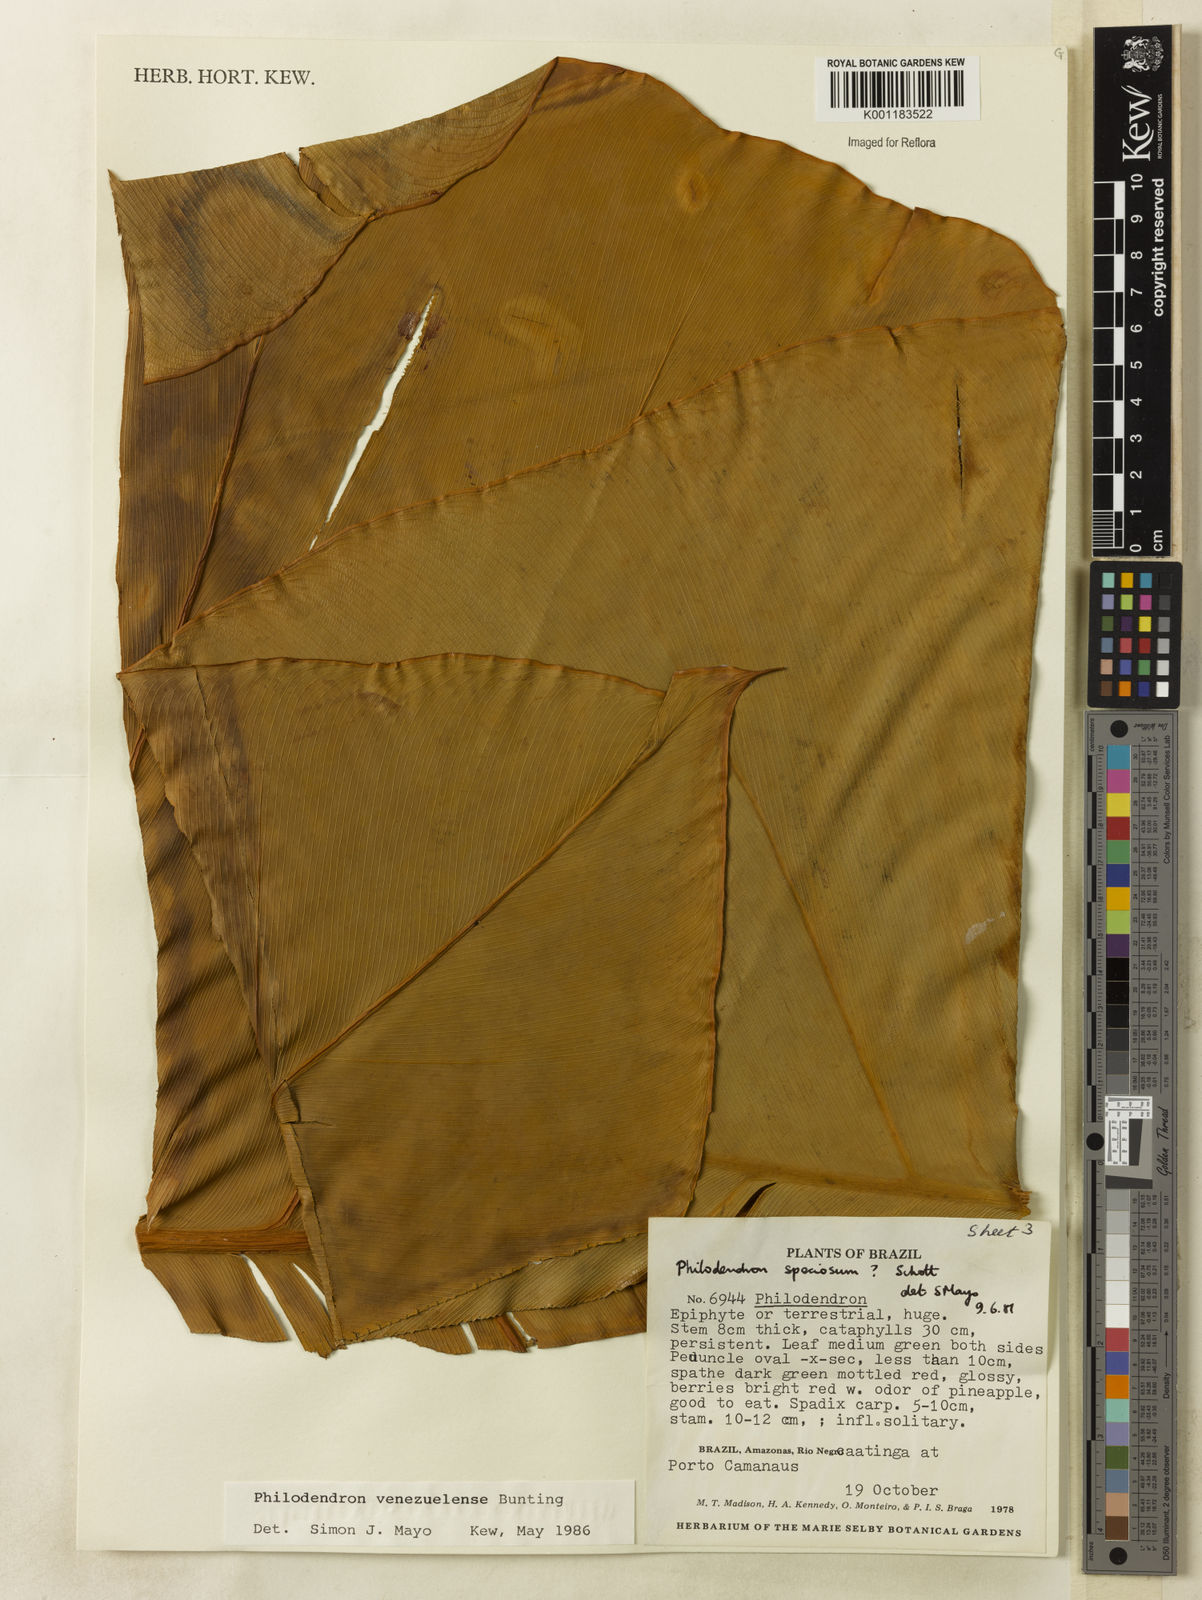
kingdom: Plantae
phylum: Tracheophyta
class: Liliopsida
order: Alismatales
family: Araceae
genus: Thaumatophyllum
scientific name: Thaumatophyllum venezuelense
